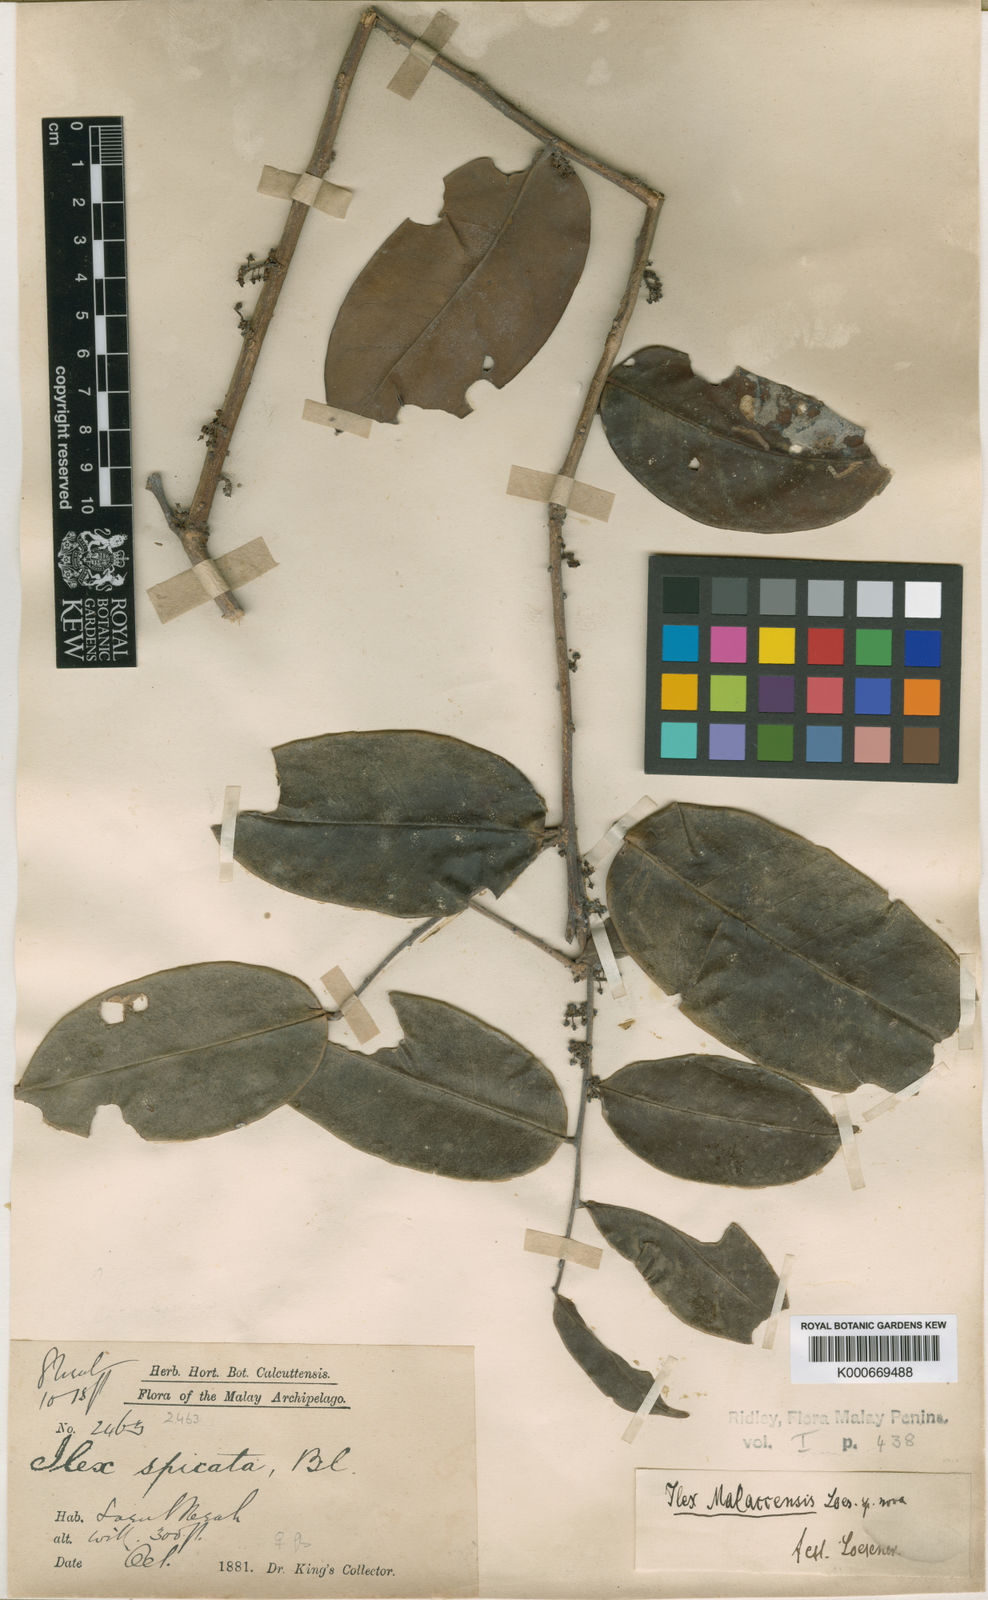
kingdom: Plantae
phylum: Tracheophyta
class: Magnoliopsida
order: Aquifoliales
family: Aquifoliaceae
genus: Ilex
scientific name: Ilex malaccensis
